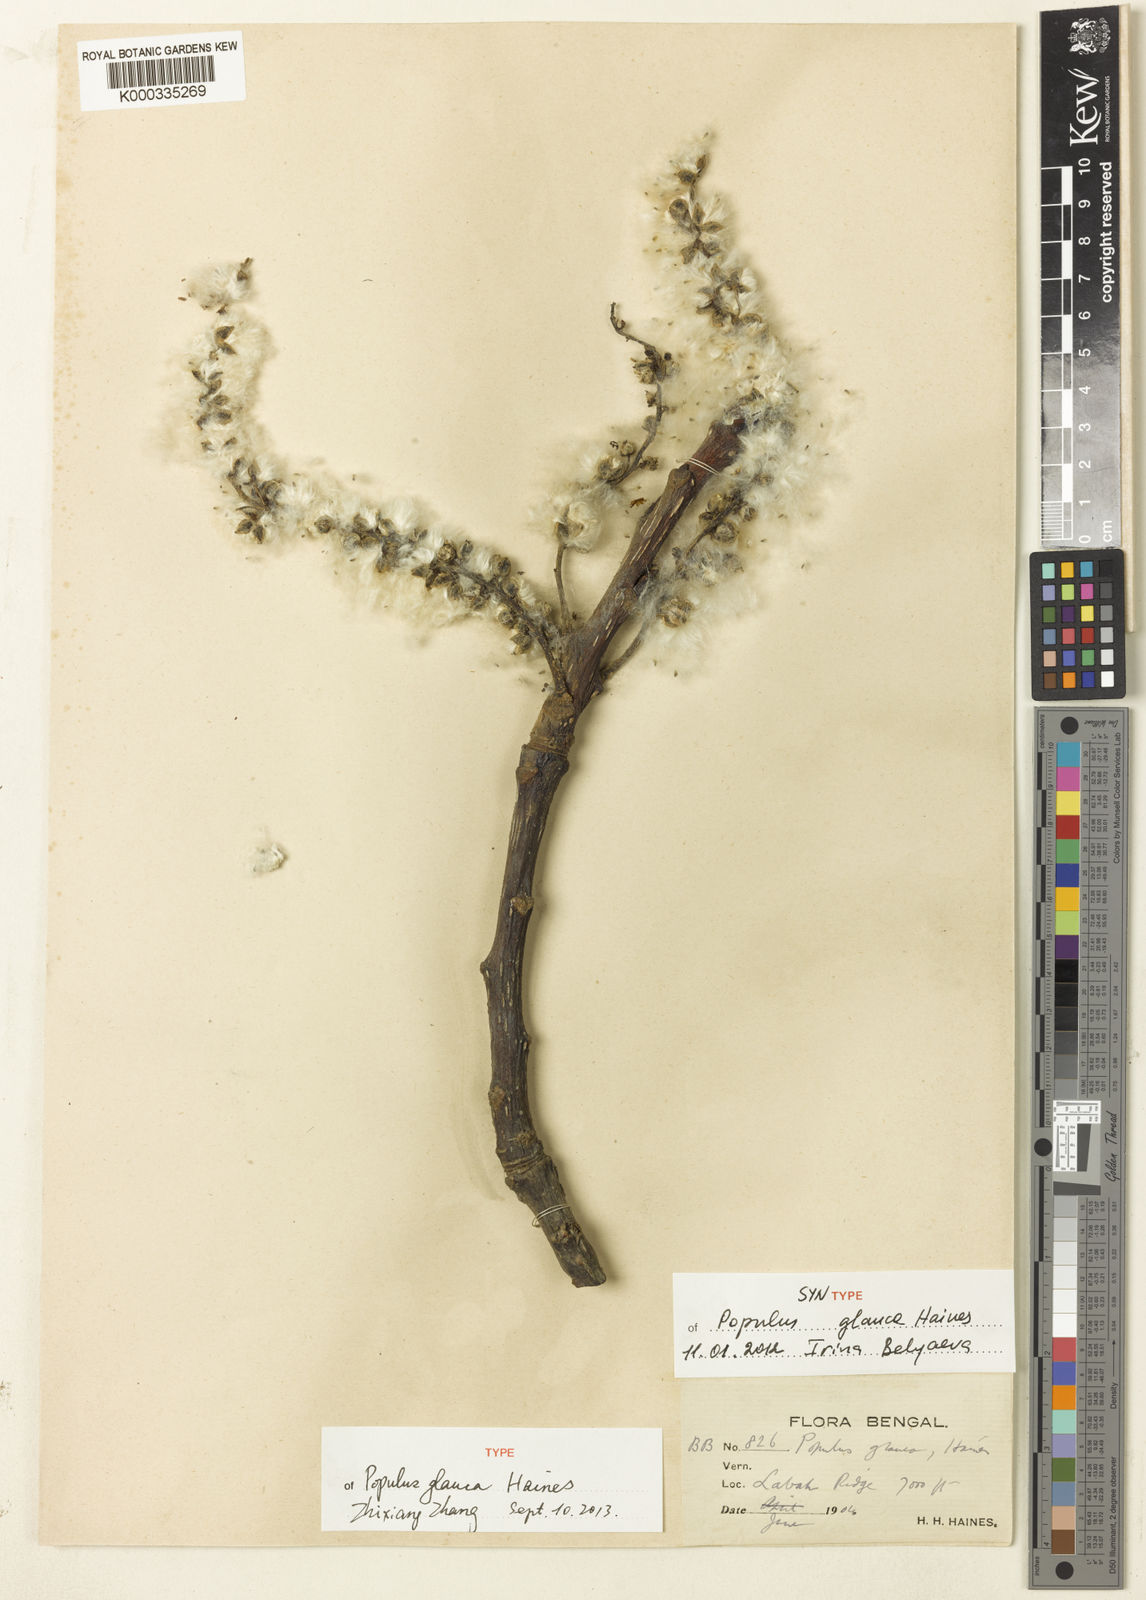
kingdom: Plantae
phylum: Tracheophyta
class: Magnoliopsida
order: Malpighiales
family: Salicaceae
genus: Populus
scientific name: Populus glauca
